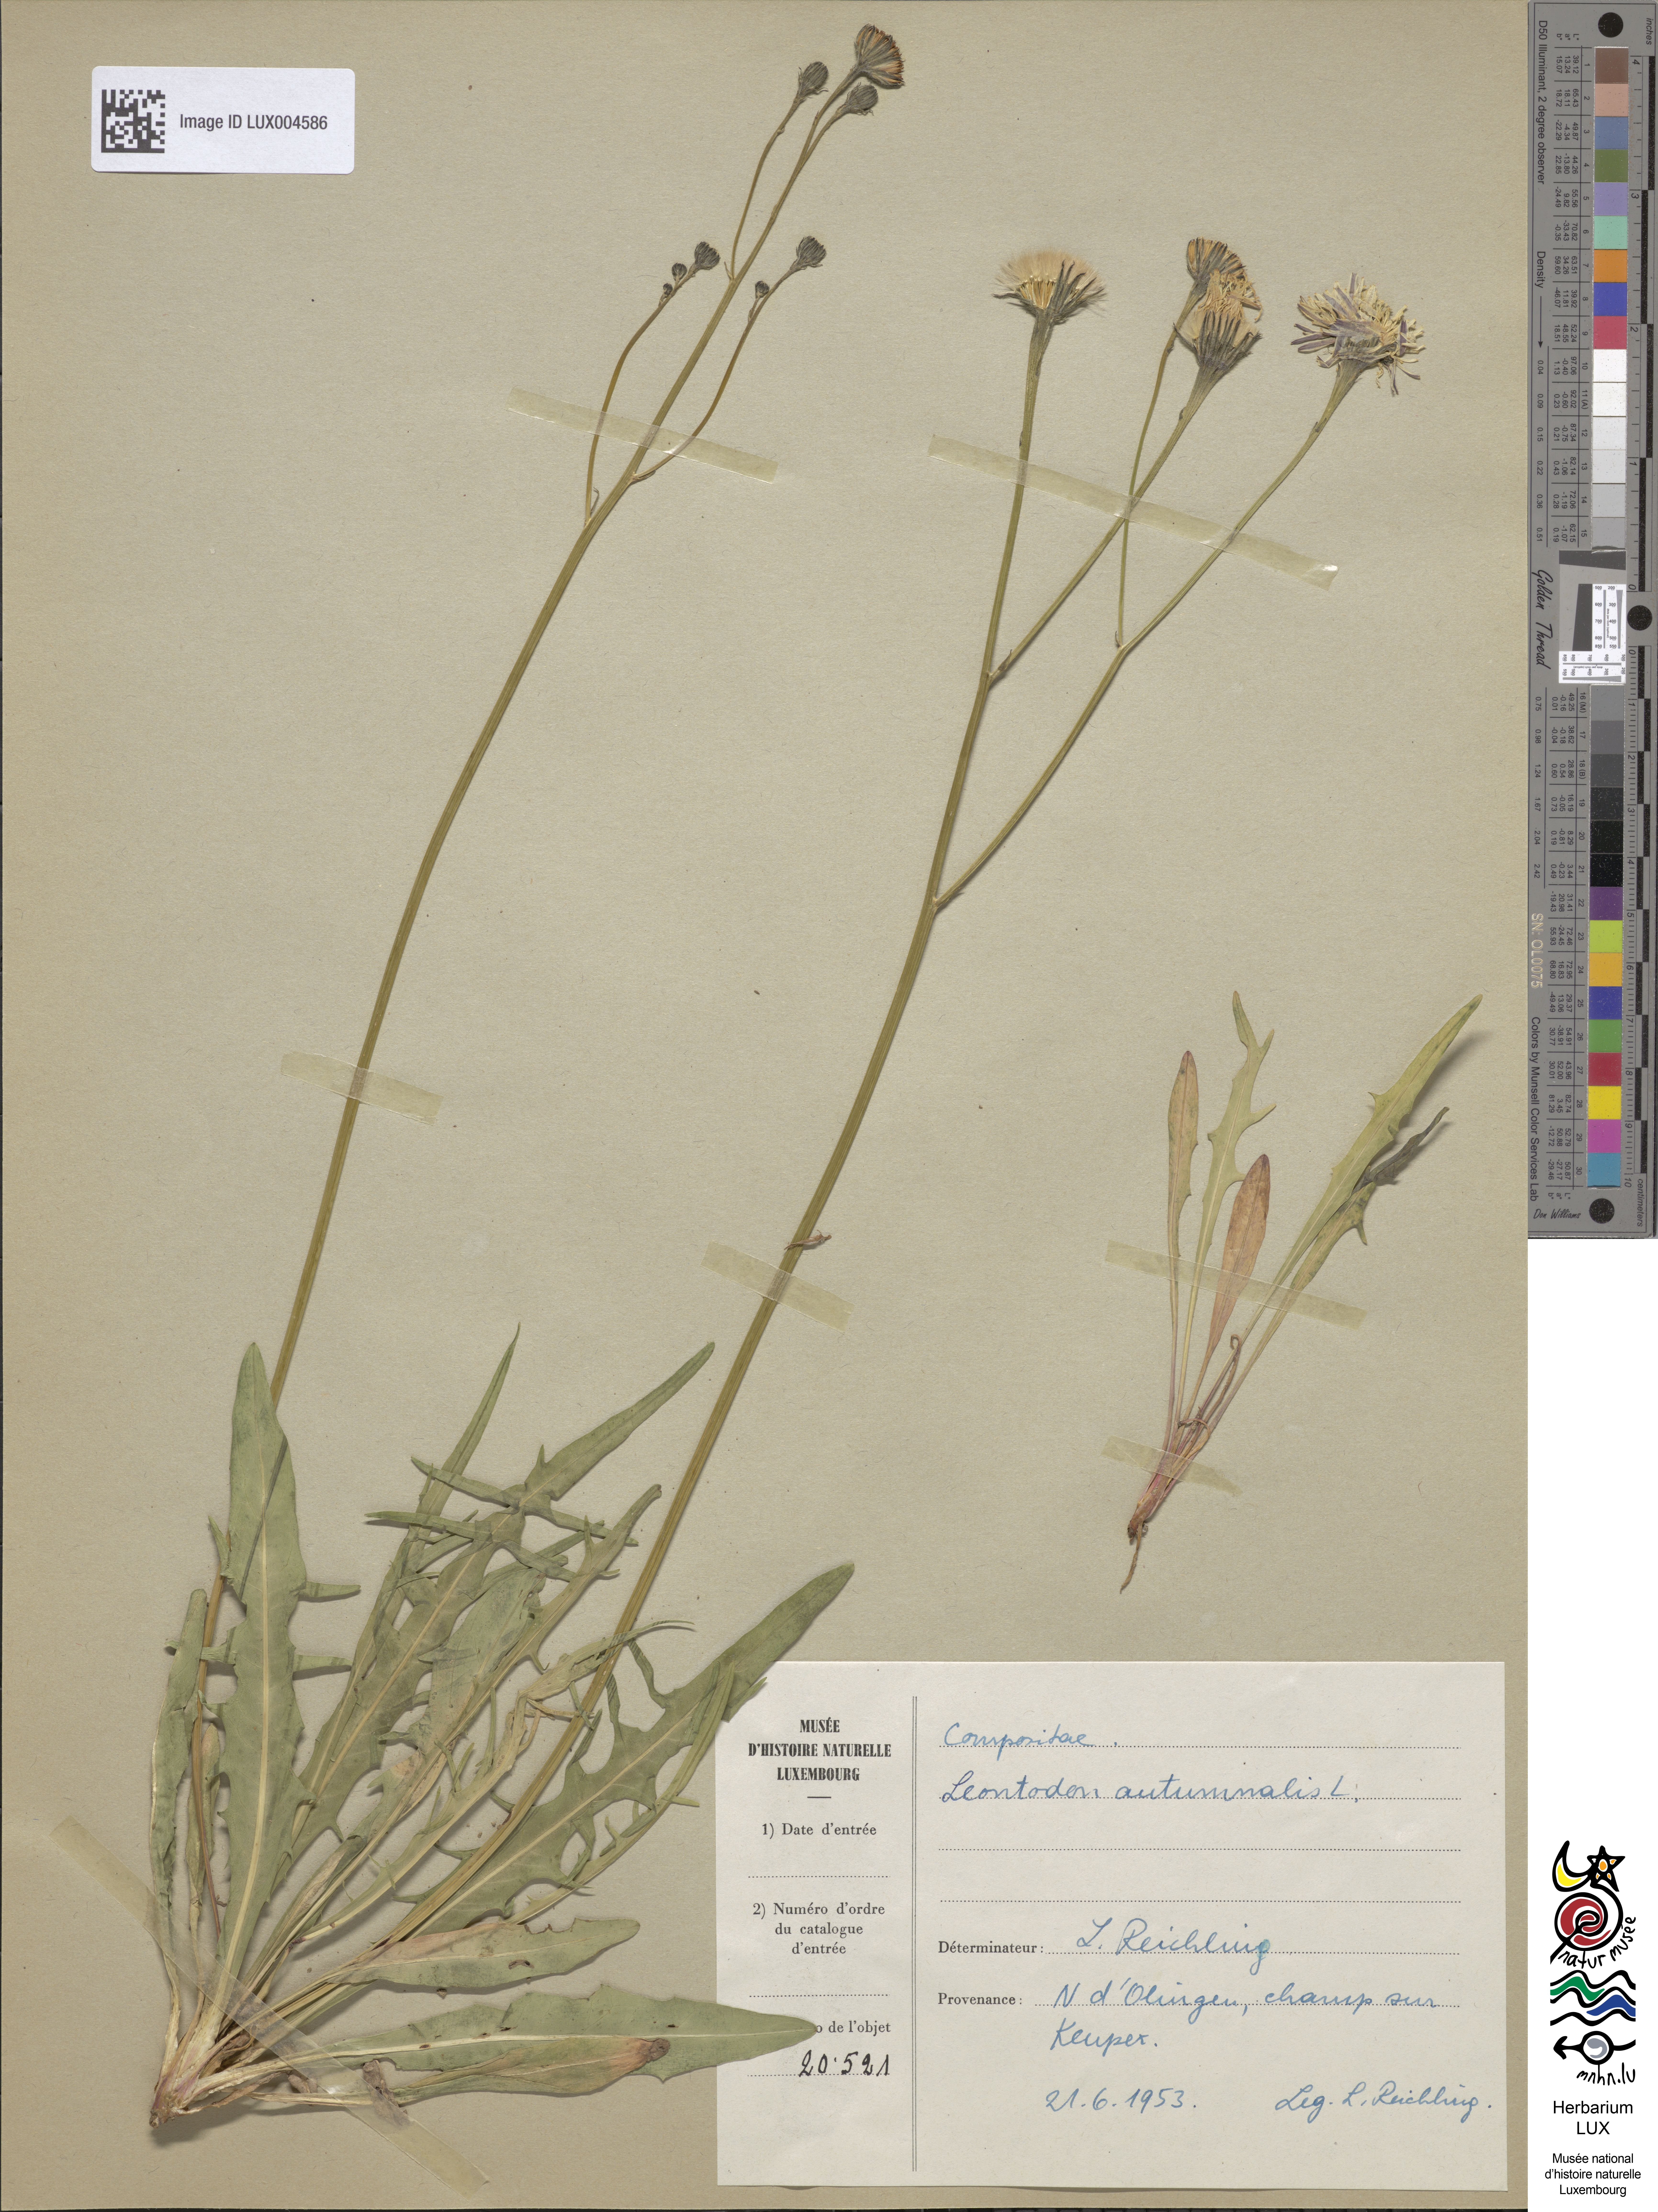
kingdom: Plantae
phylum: Tracheophyta
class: Magnoliopsida
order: Asterales
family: Asteraceae
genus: Scorzoneroides
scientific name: Scorzoneroides autumnalis
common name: Autumn hawkbit
